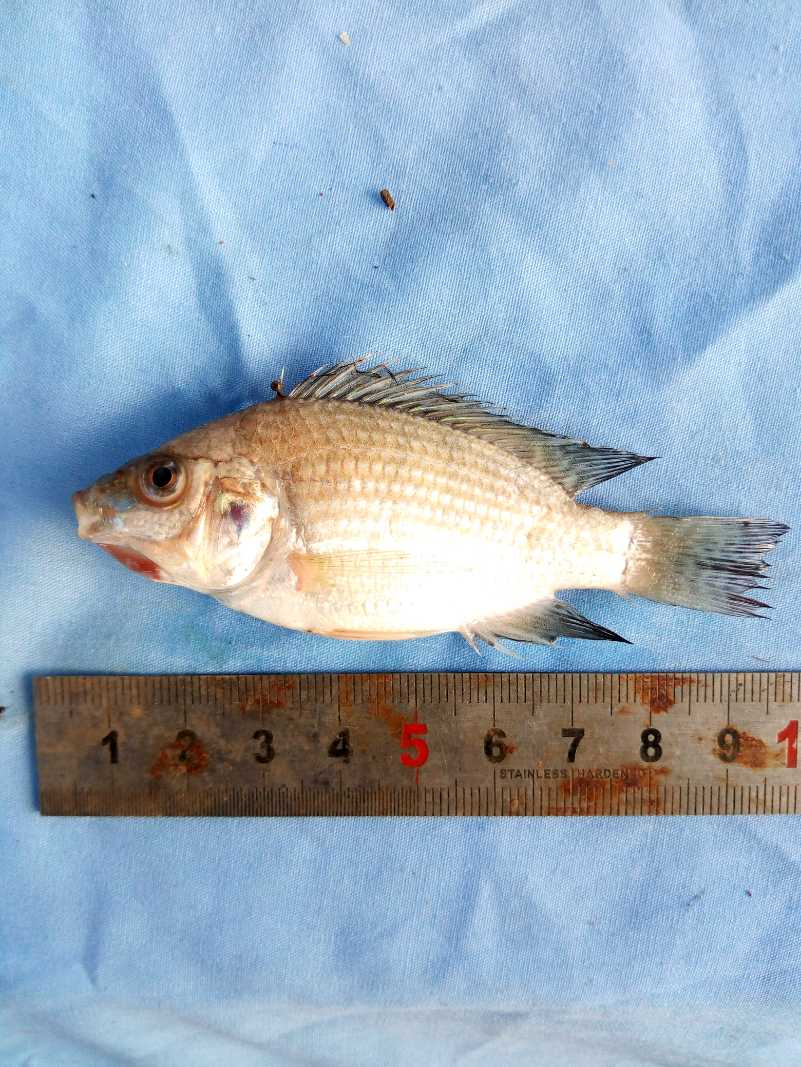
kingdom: Animalia
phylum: Chordata
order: Perciformes
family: Cichlidae
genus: Oreochromis
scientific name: Oreochromis spilurus
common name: Sabaki tilapia
